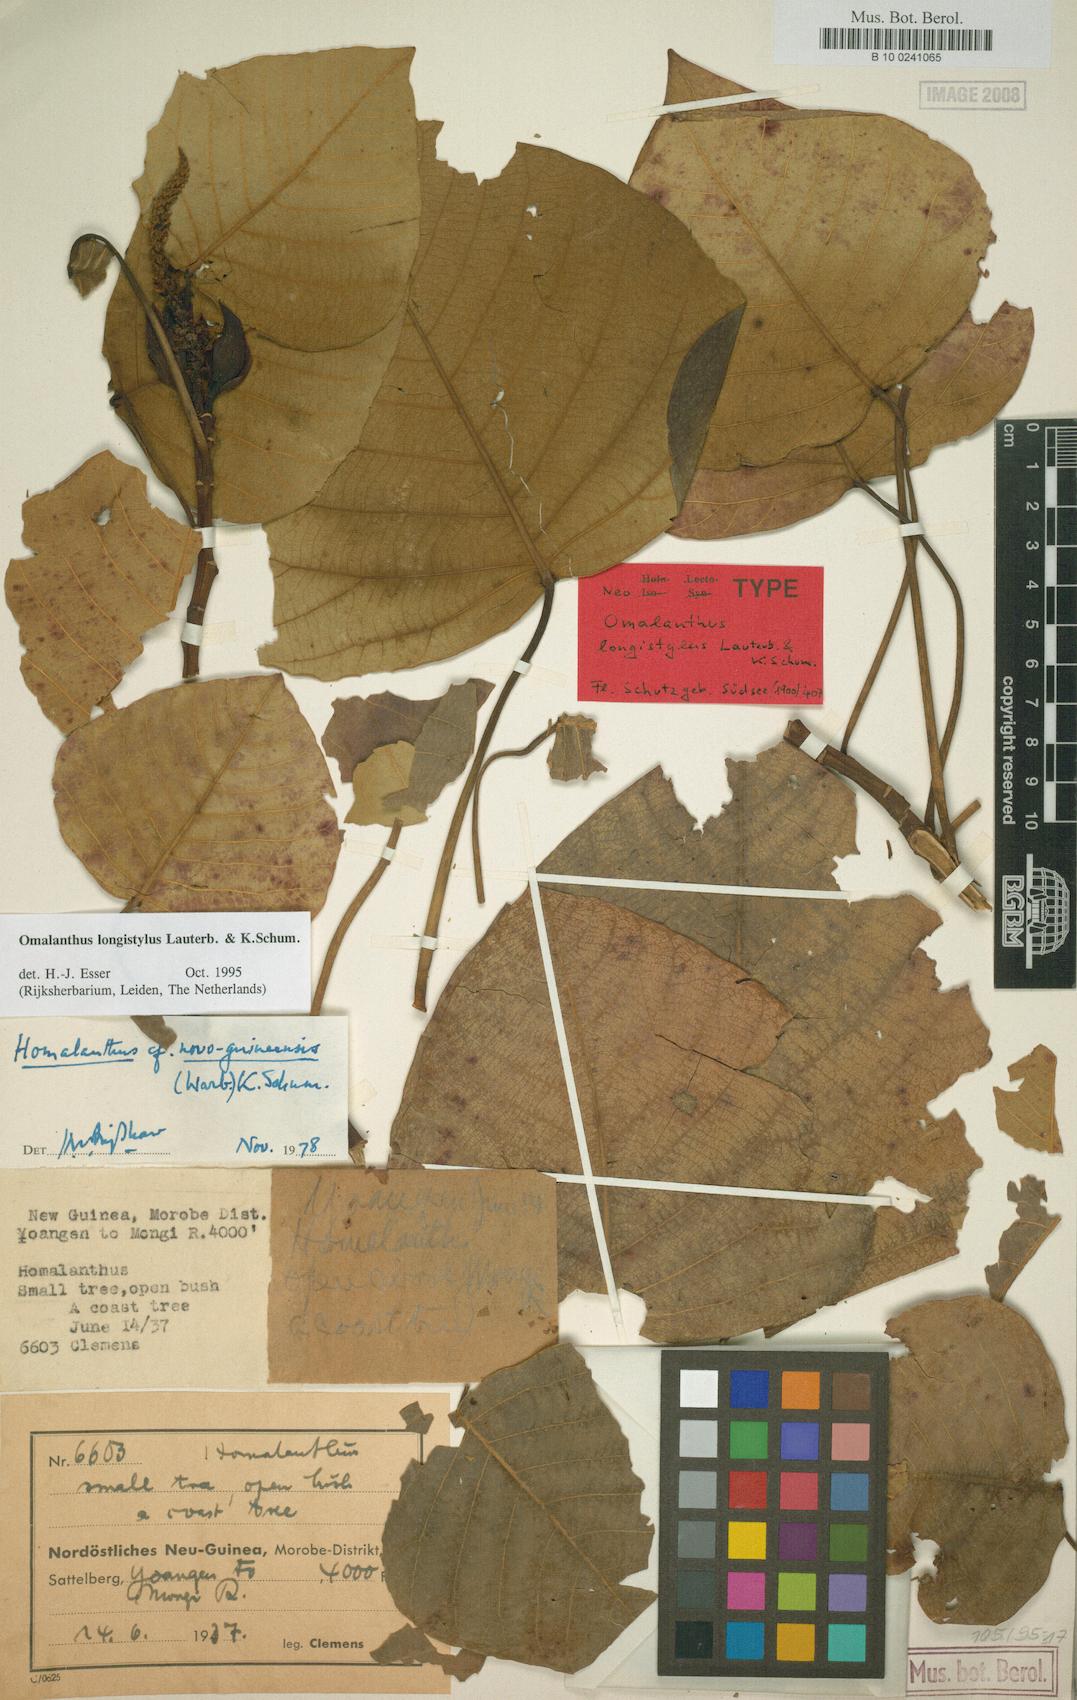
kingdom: Plantae
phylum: Tracheophyta
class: Magnoliopsida
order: Malpighiales
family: Euphorbiaceae
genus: Homalanthus
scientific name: Homalanthus longistylus
